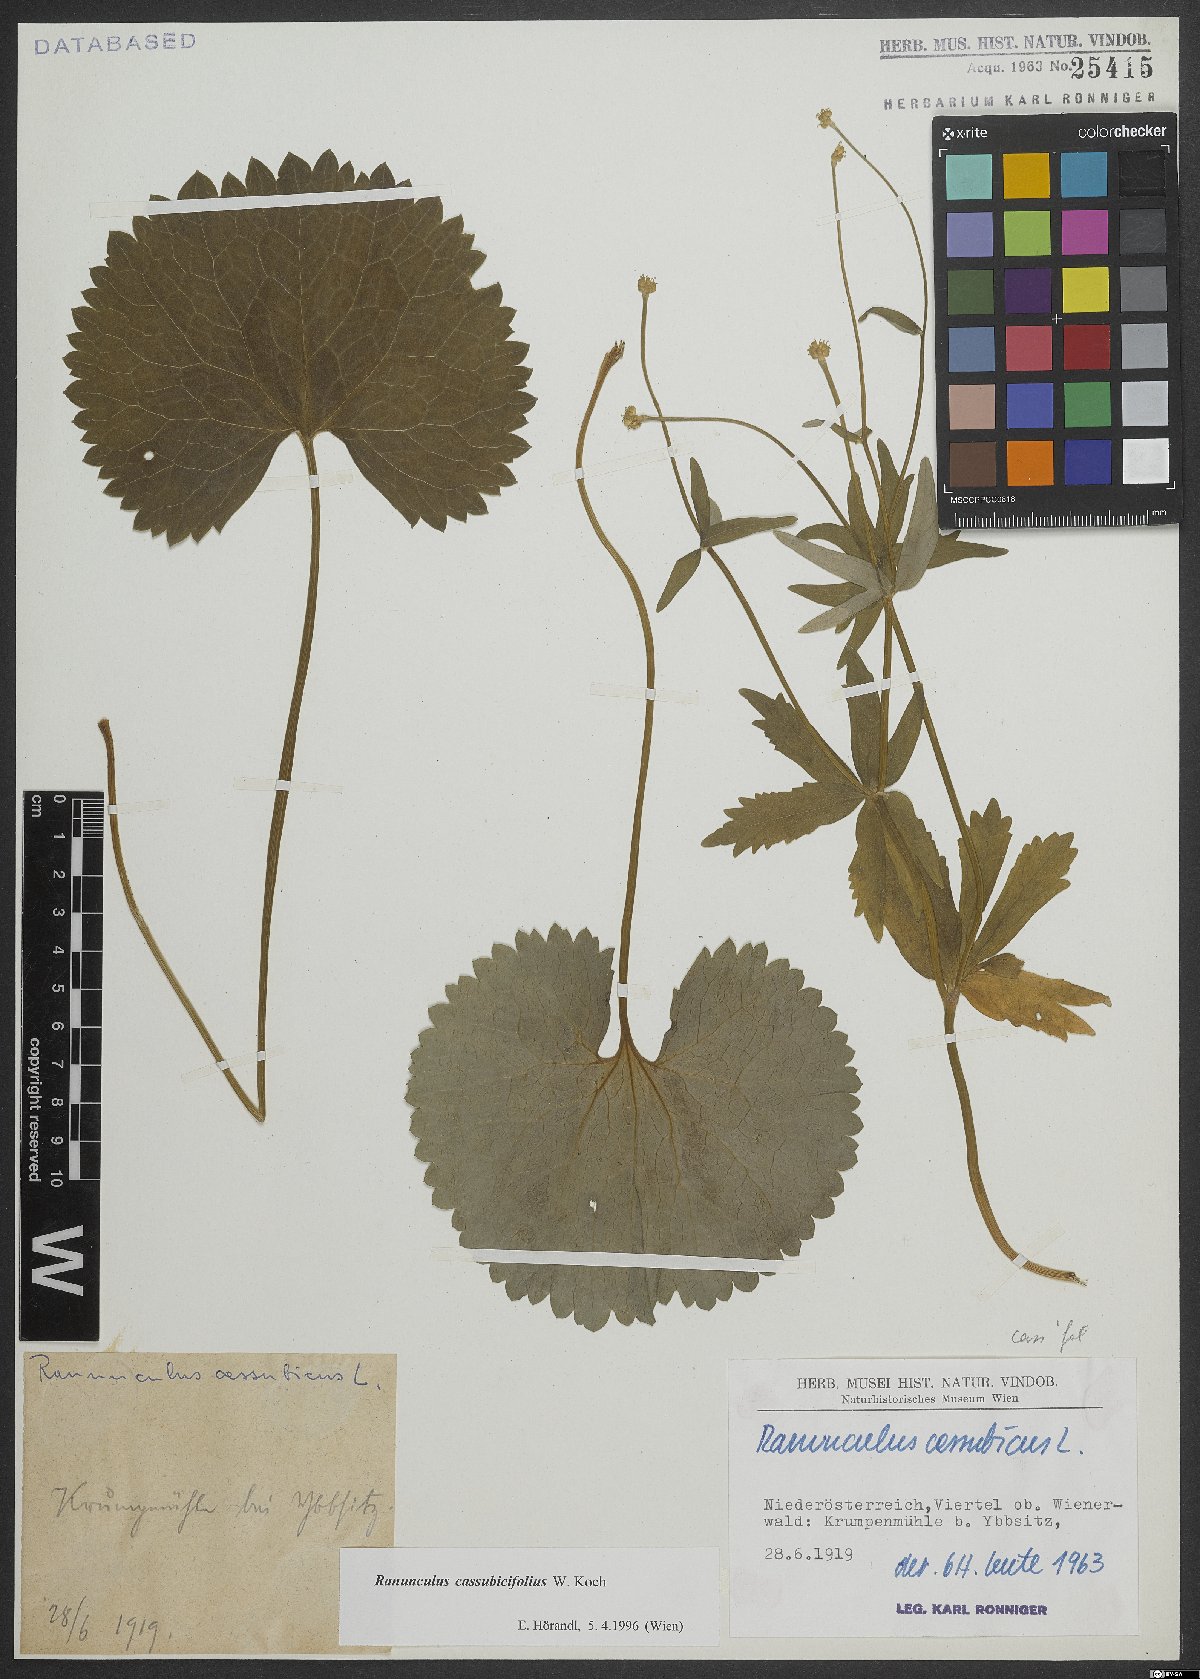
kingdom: Plantae
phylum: Tracheophyta
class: Magnoliopsida
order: Ranunculales
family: Ranunculaceae
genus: Ranunculus
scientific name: Ranunculus cassubicifolius
